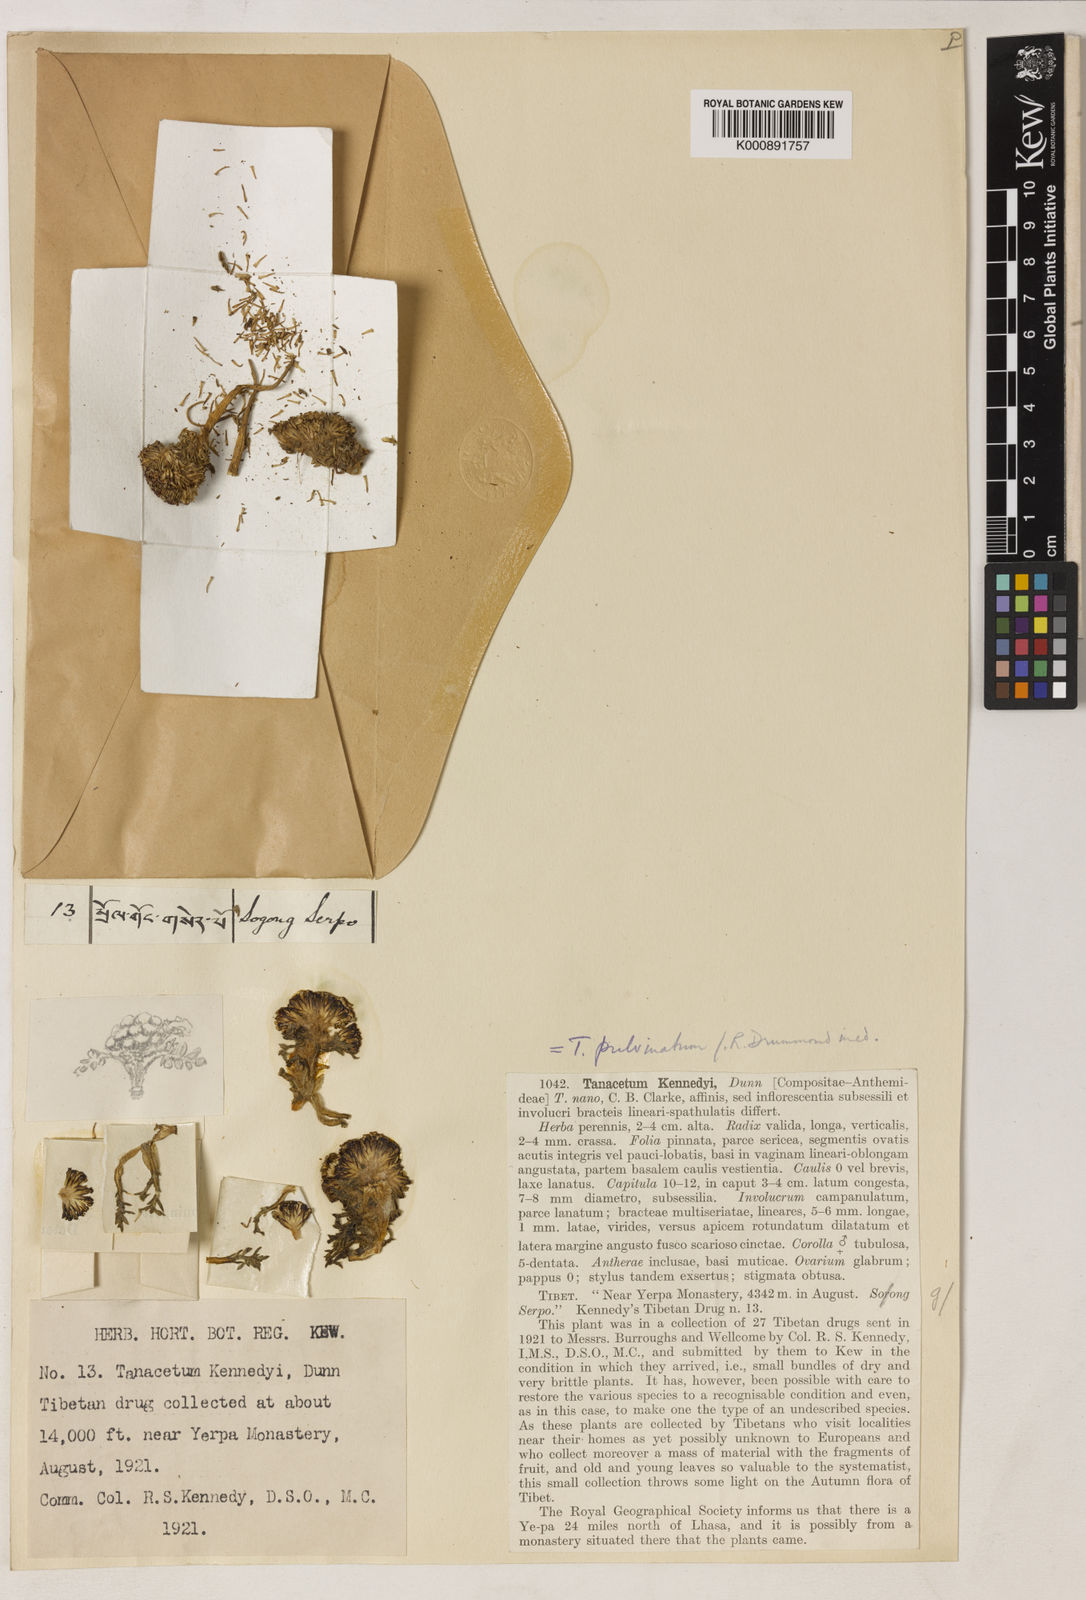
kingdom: Plantae
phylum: Tracheophyta
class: Magnoliopsida
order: Asterales
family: Asteraceae
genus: Hippolytia
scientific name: Hippolytia kennedyi
